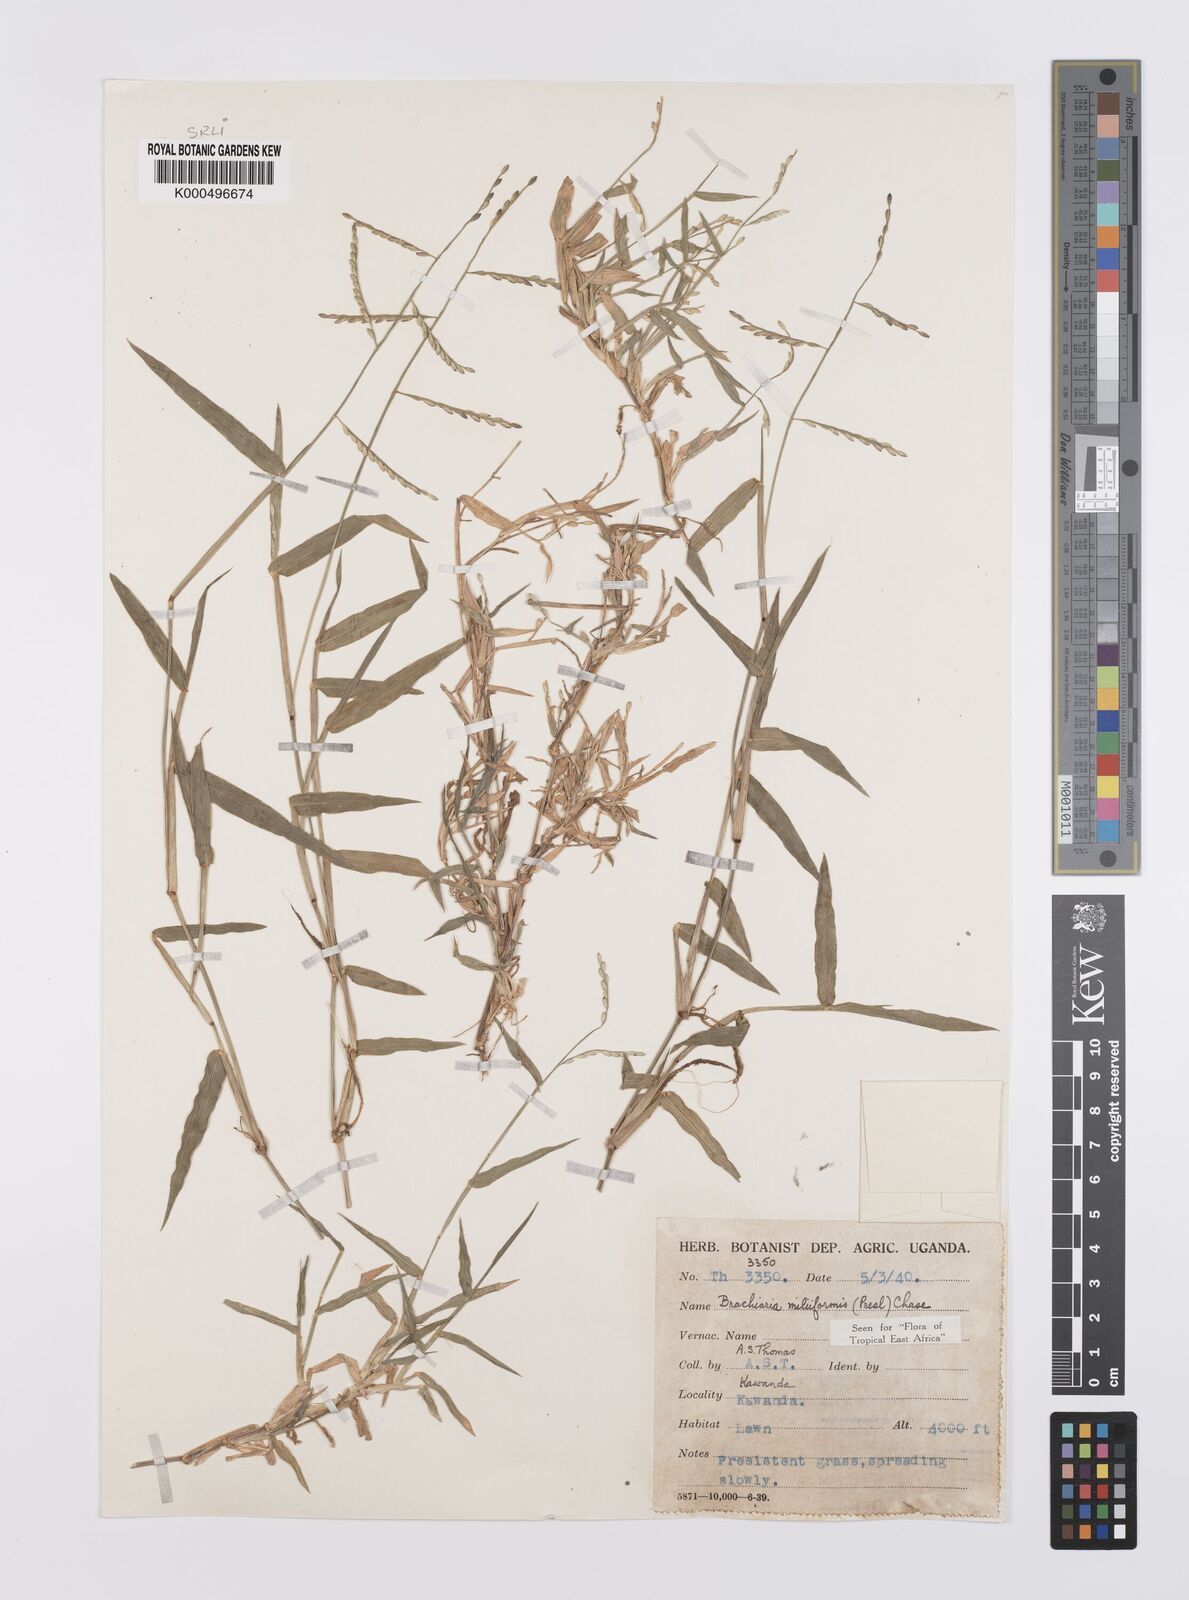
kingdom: Plantae
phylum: Tracheophyta
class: Liliopsida
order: Poales
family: Poaceae
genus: Urochloa
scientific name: Urochloa subquadripara
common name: Armgrass millet
